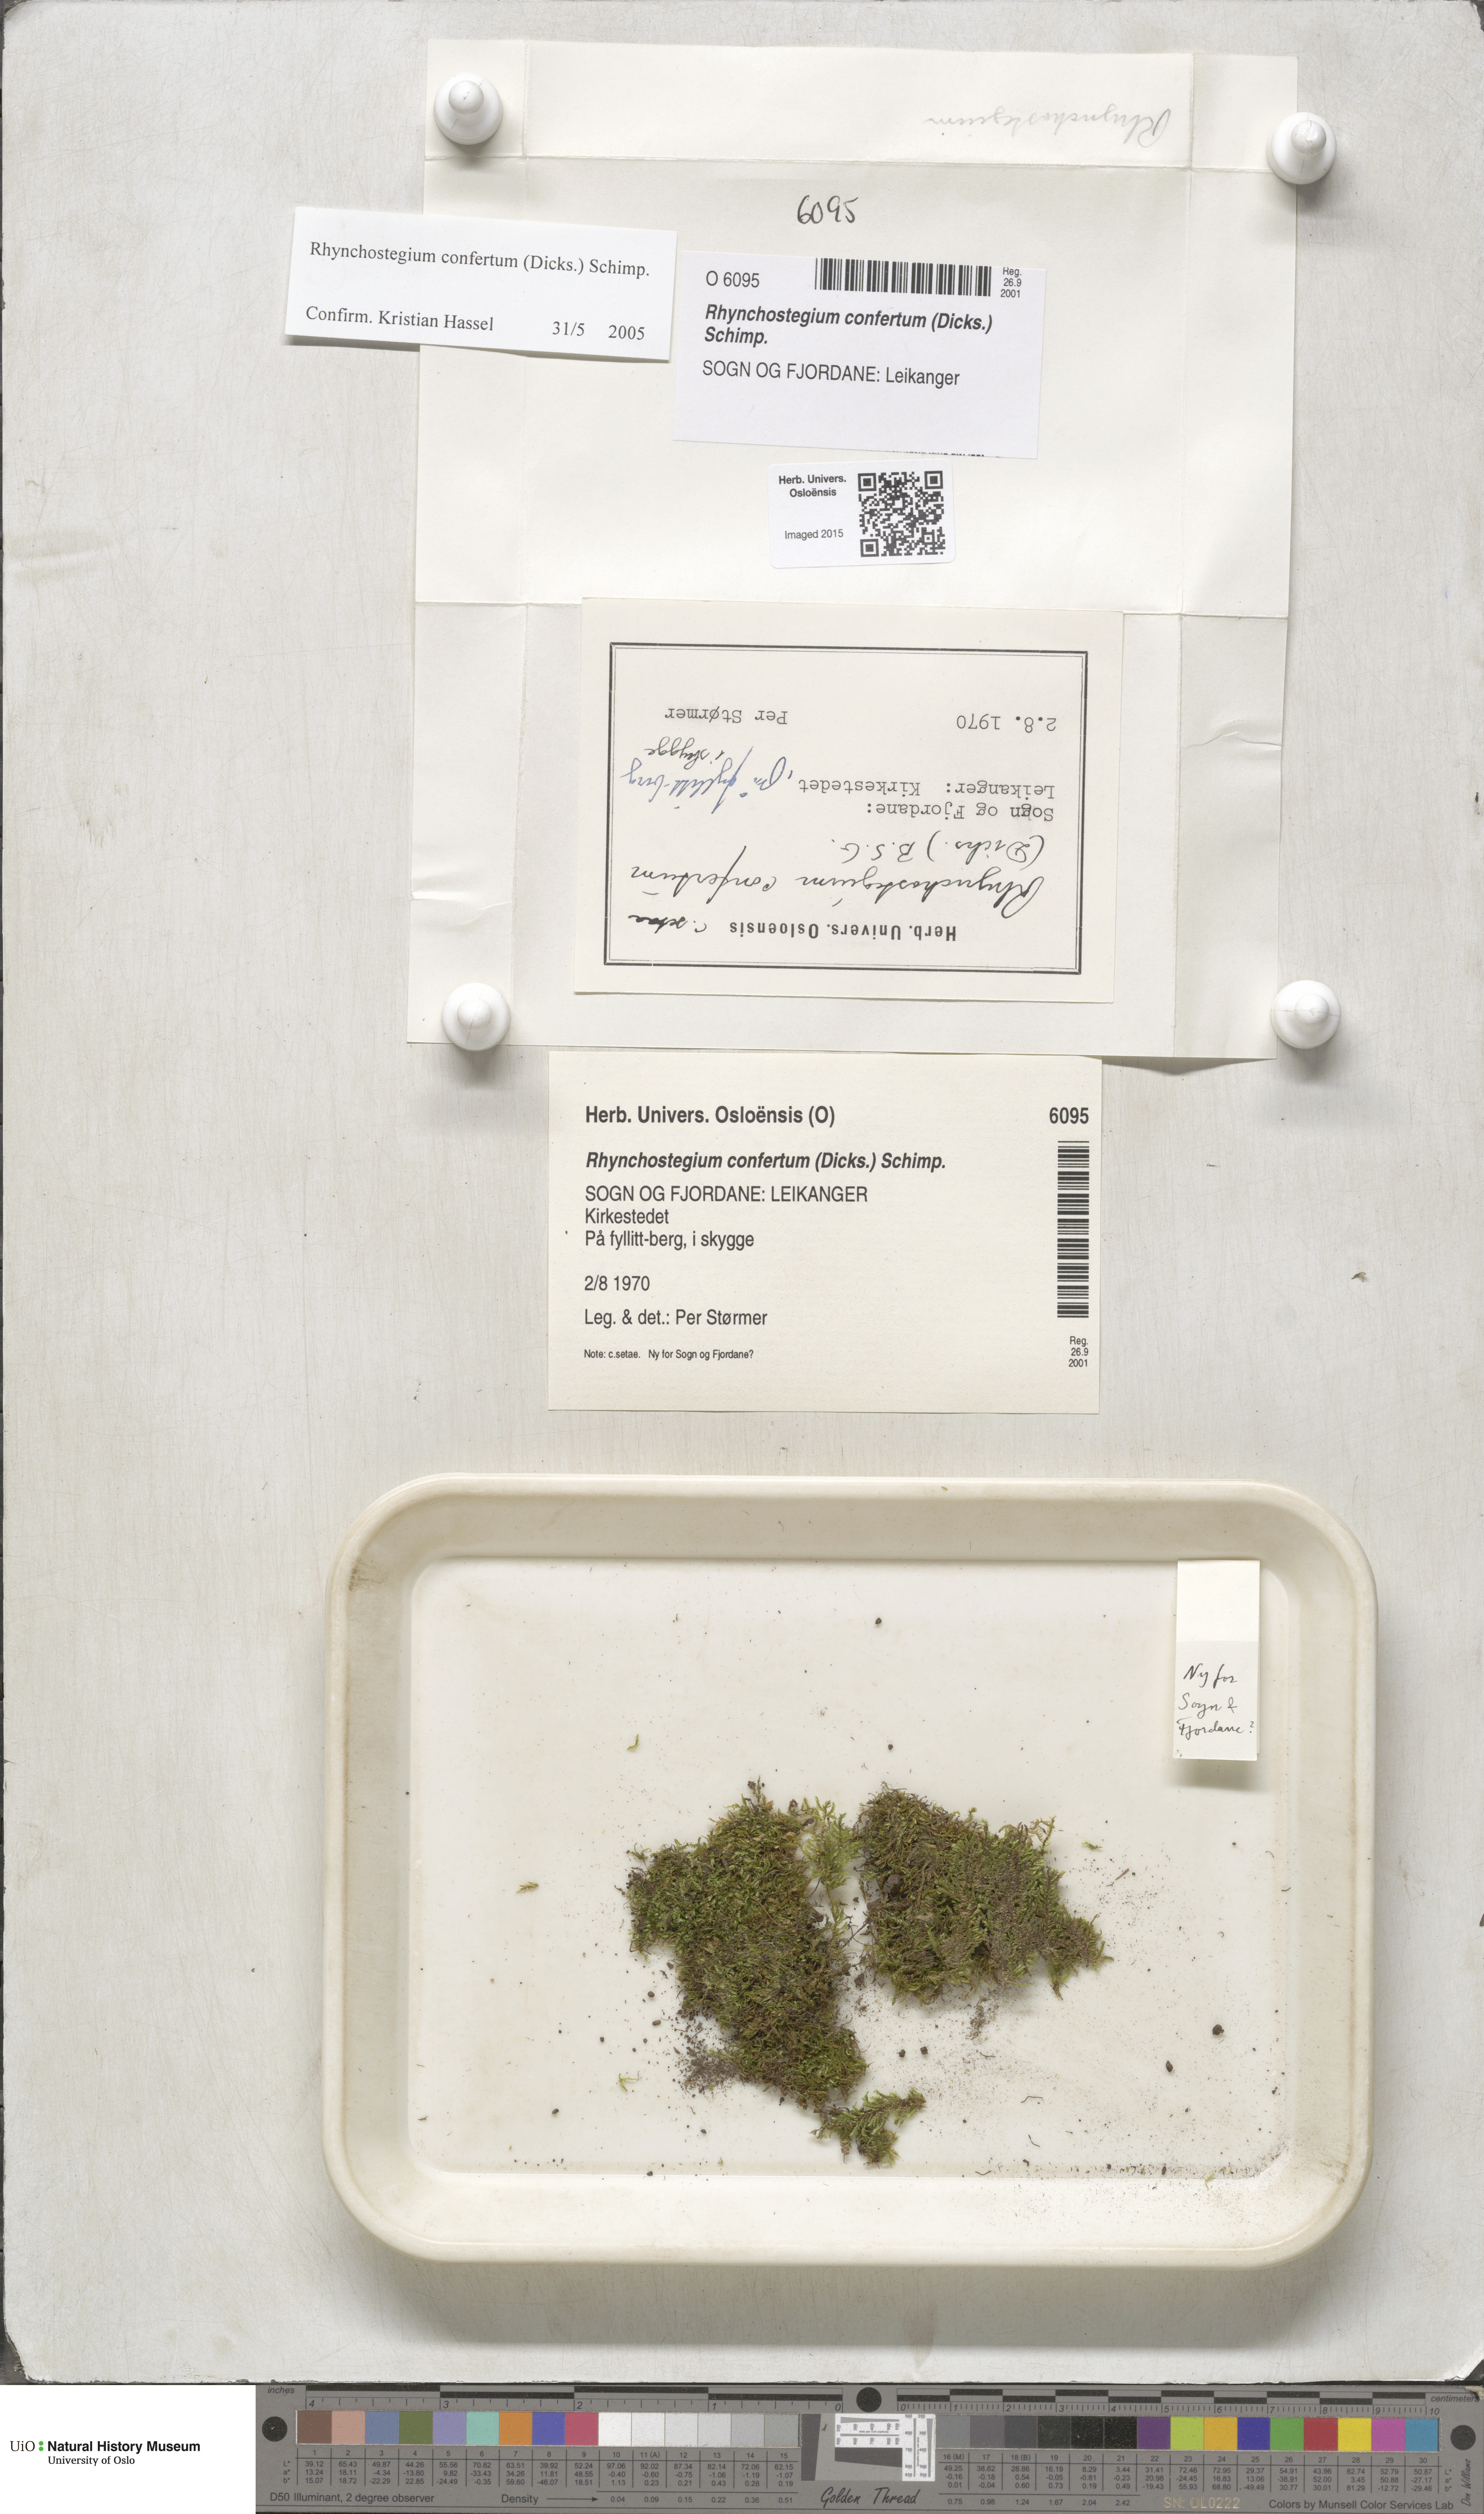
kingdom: Plantae
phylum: Bryophyta
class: Bryopsida
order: Hypnales
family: Brachytheciaceae
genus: Rhynchostegium
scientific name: Rhynchostegium confertum
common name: Clustered feather-moss
